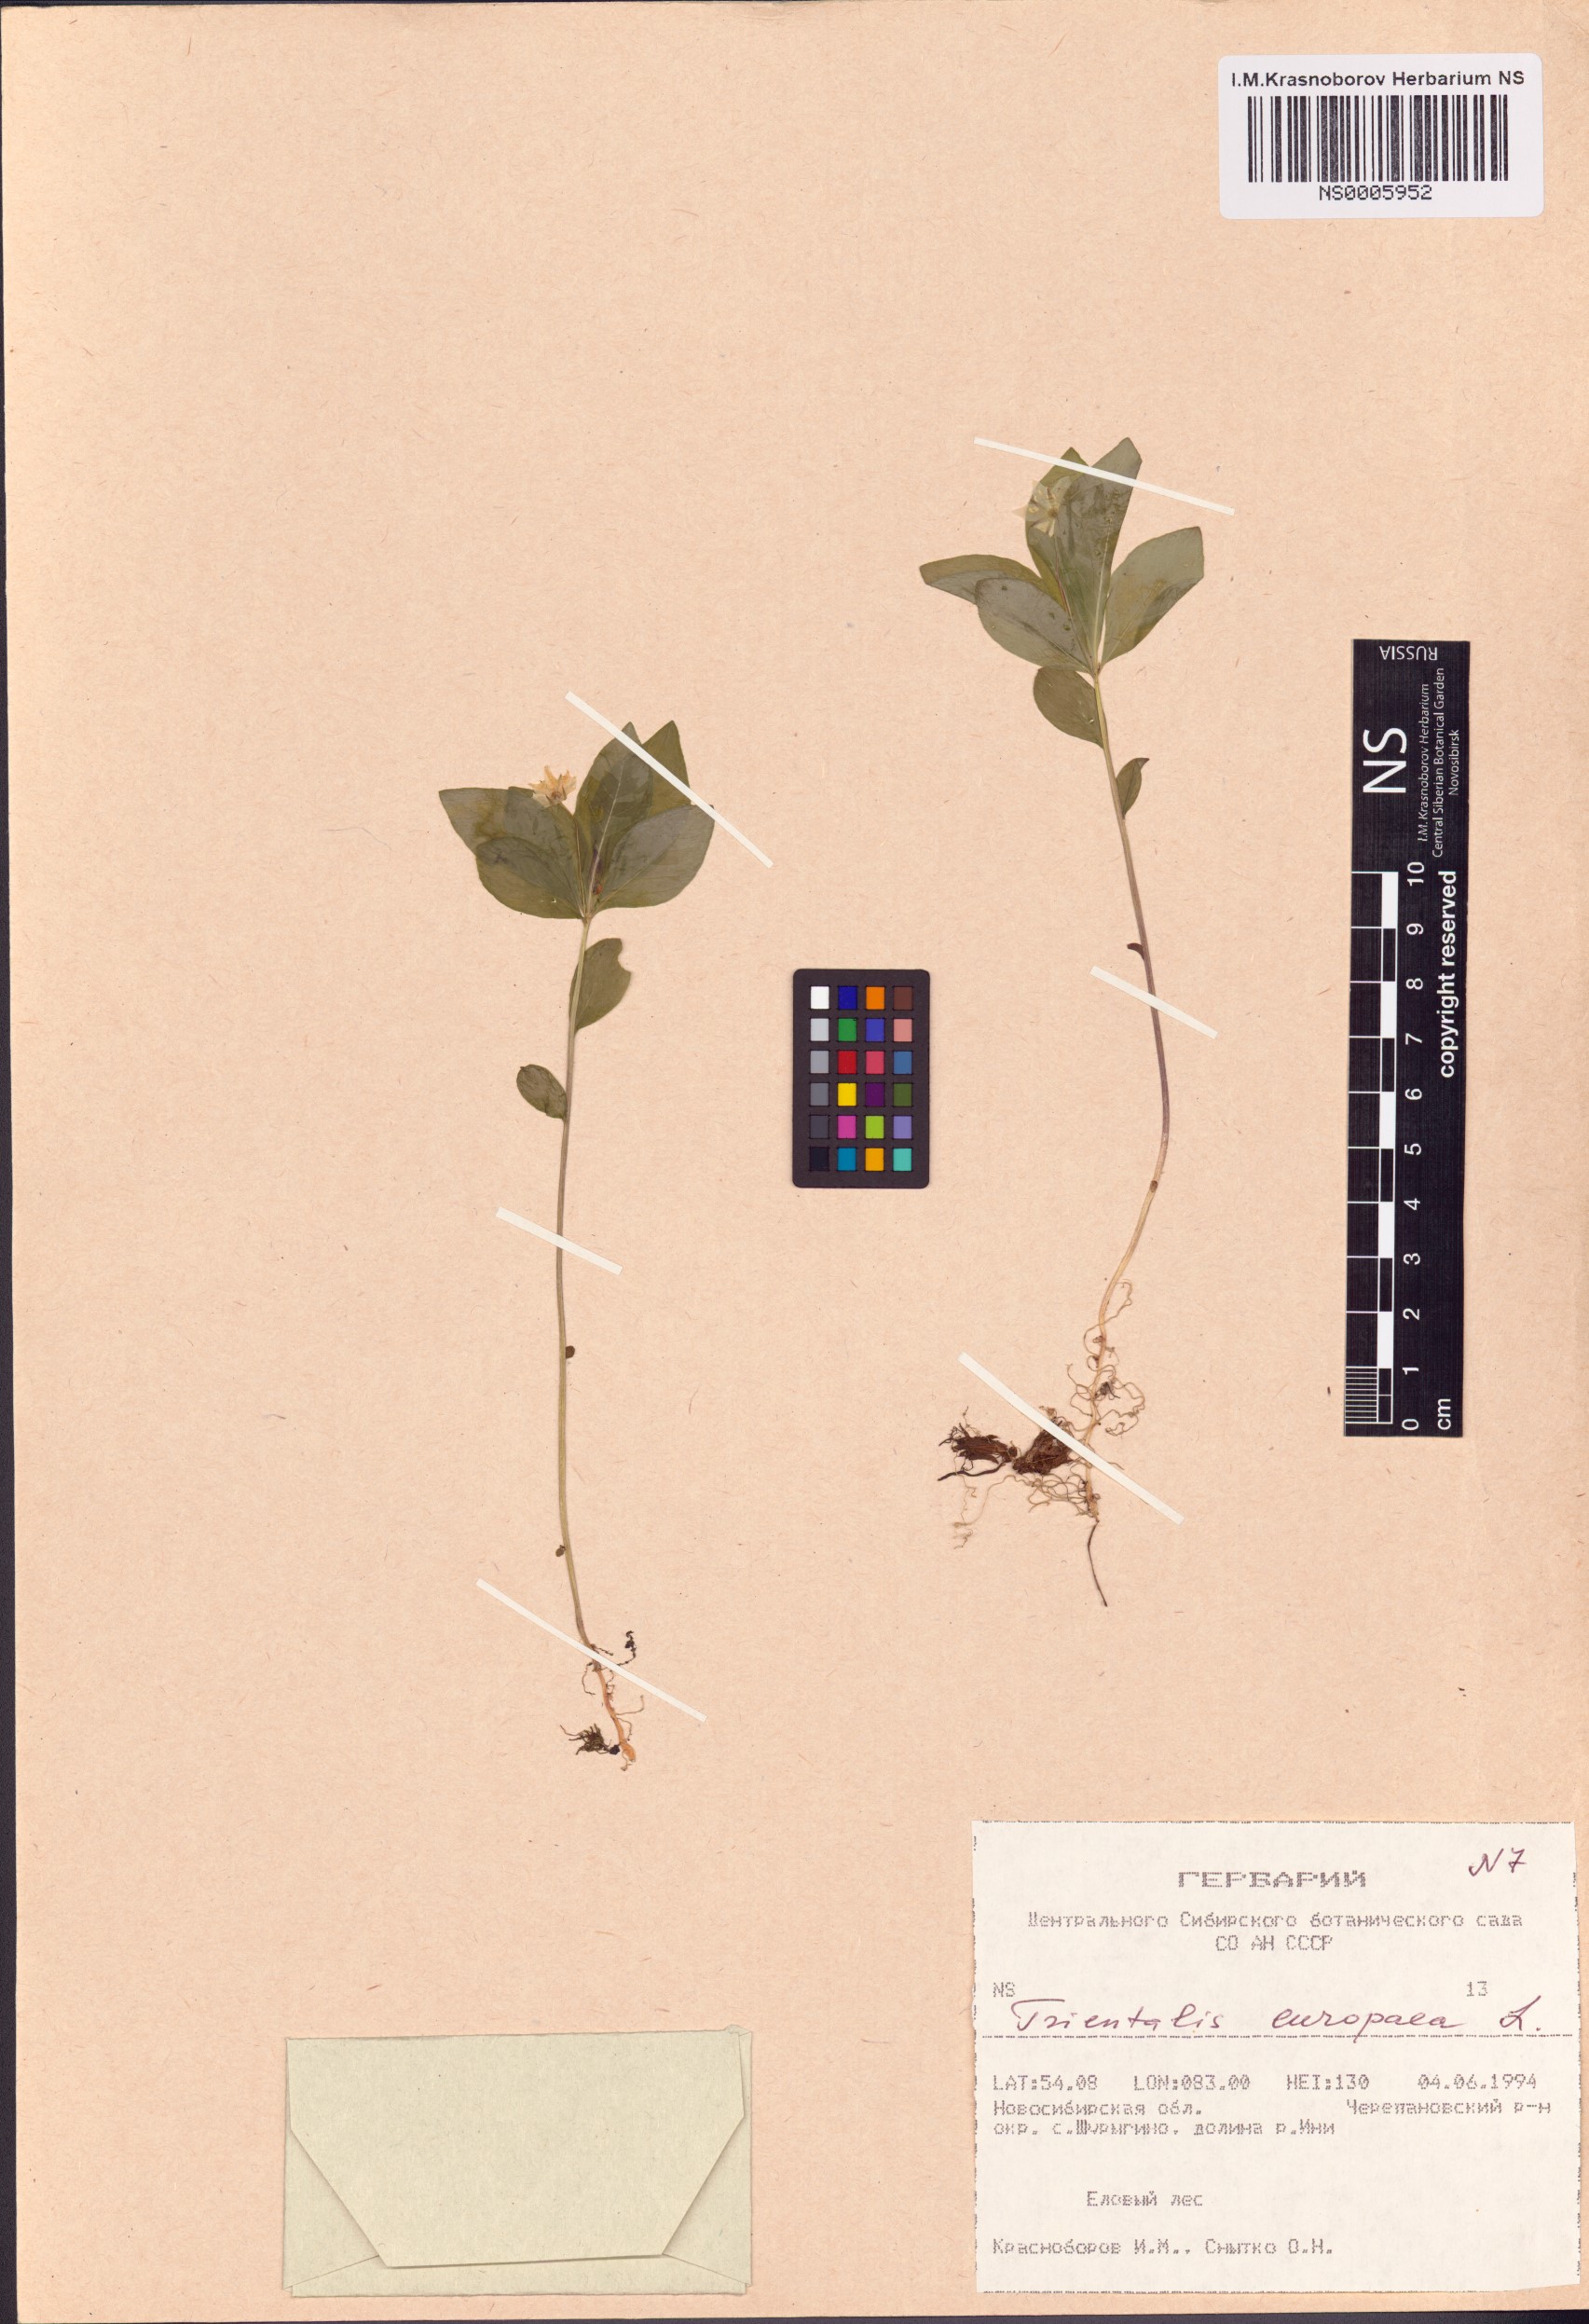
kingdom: Plantae
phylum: Tracheophyta
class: Magnoliopsida
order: Ericales
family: Primulaceae
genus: Lysimachia
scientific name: Lysimachia europaea
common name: Arctic starflower
